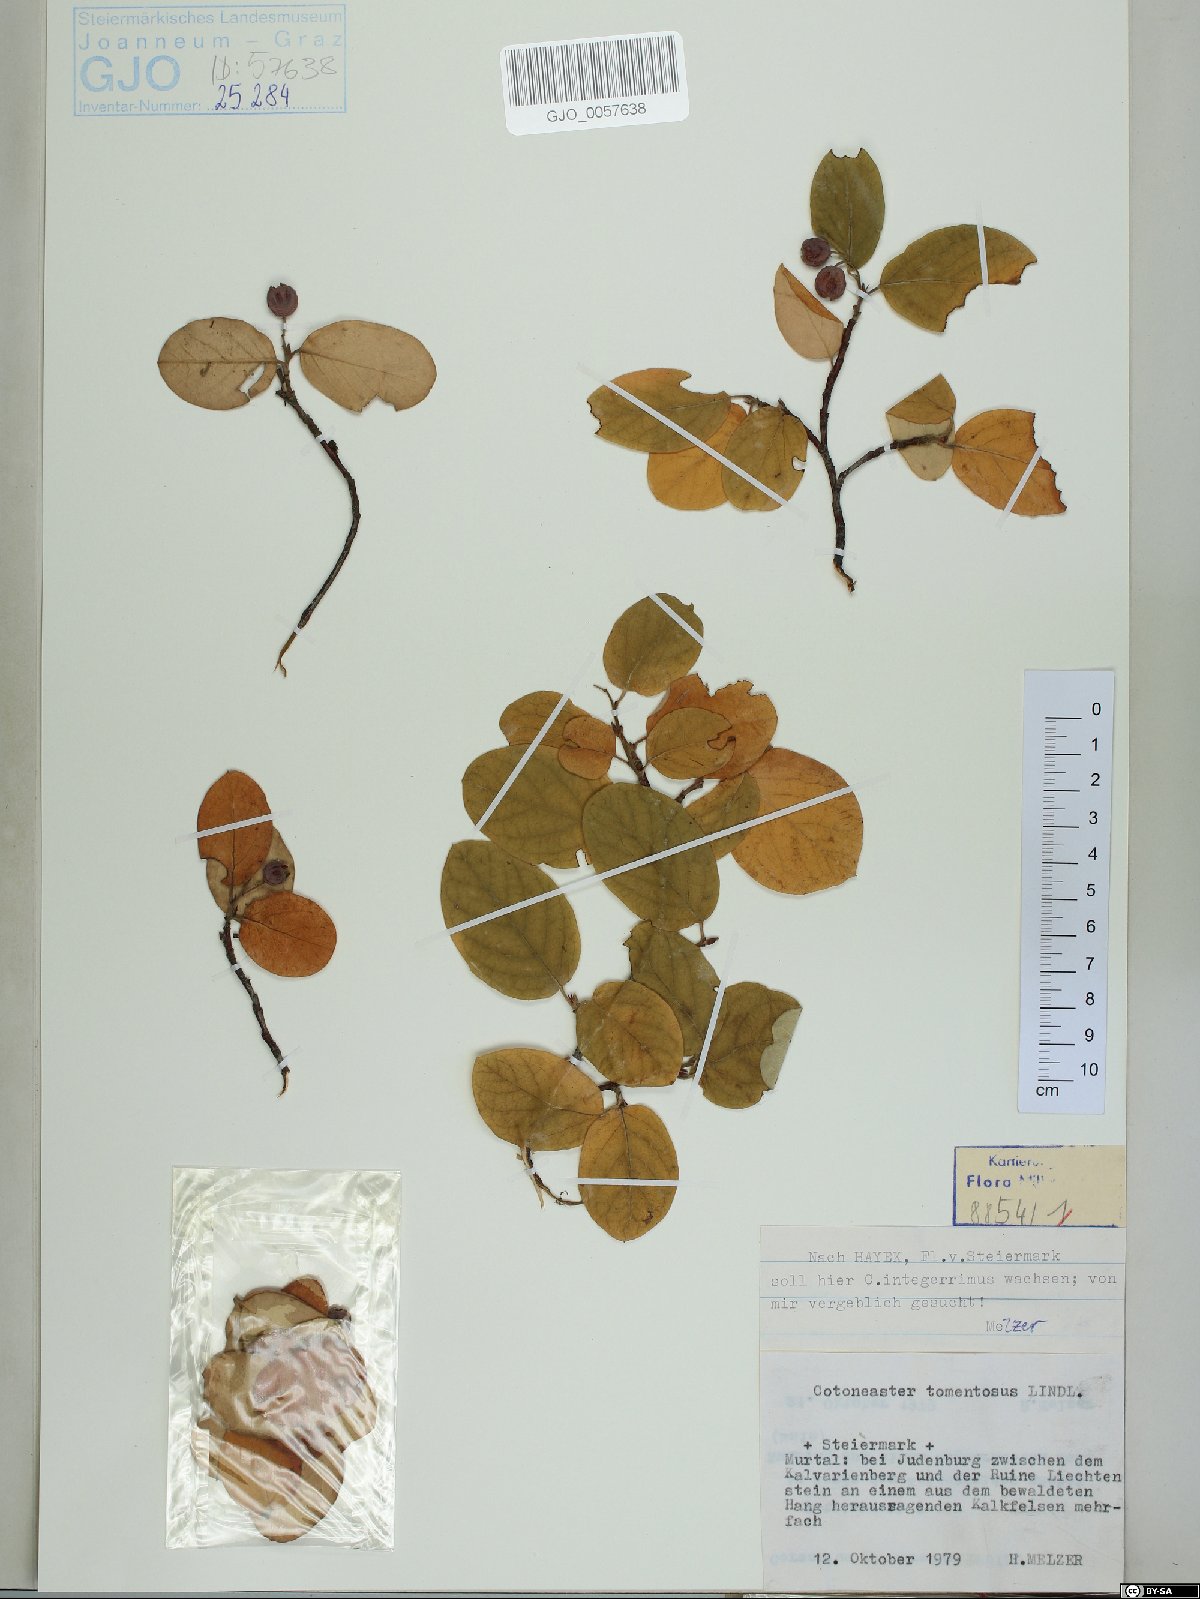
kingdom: Plantae
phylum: Tracheophyta
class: Magnoliopsida
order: Rosales
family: Rosaceae
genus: Cotoneaster
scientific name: Cotoneaster tomentosus
